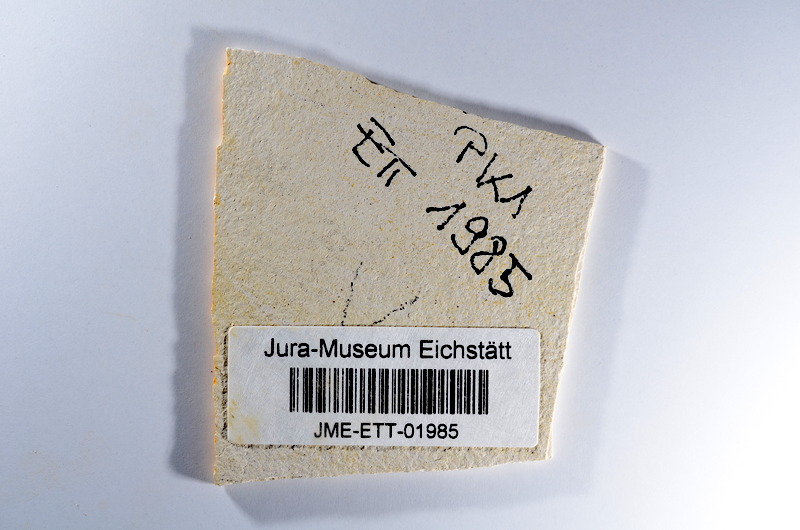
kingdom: Animalia
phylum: Chordata
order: Salmoniformes
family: Orthogonikleithridae
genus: Orthogonikleithrus
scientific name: Orthogonikleithrus hoelli
